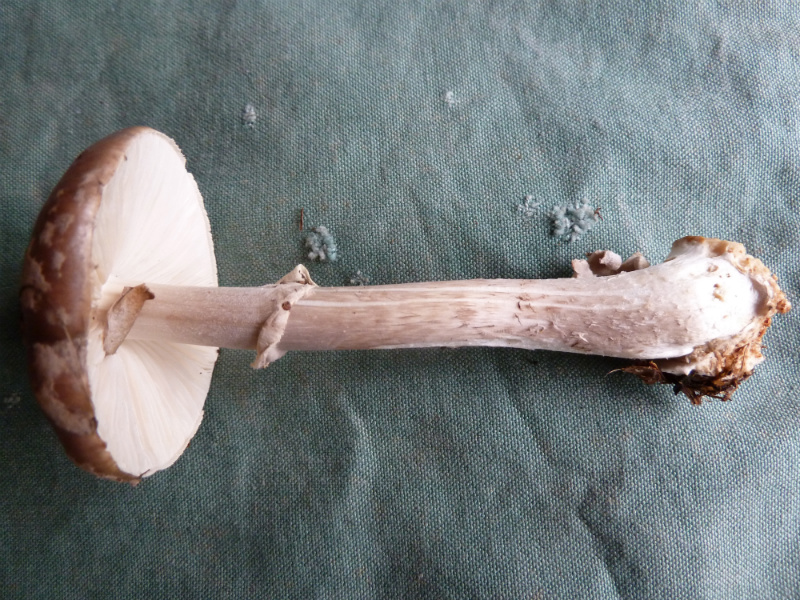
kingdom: Fungi
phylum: Basidiomycota
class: Agaricomycetes
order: Agaricales
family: Amanitaceae
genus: Amanita
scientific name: Amanita porphyria
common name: porfyr-fluesvamp
